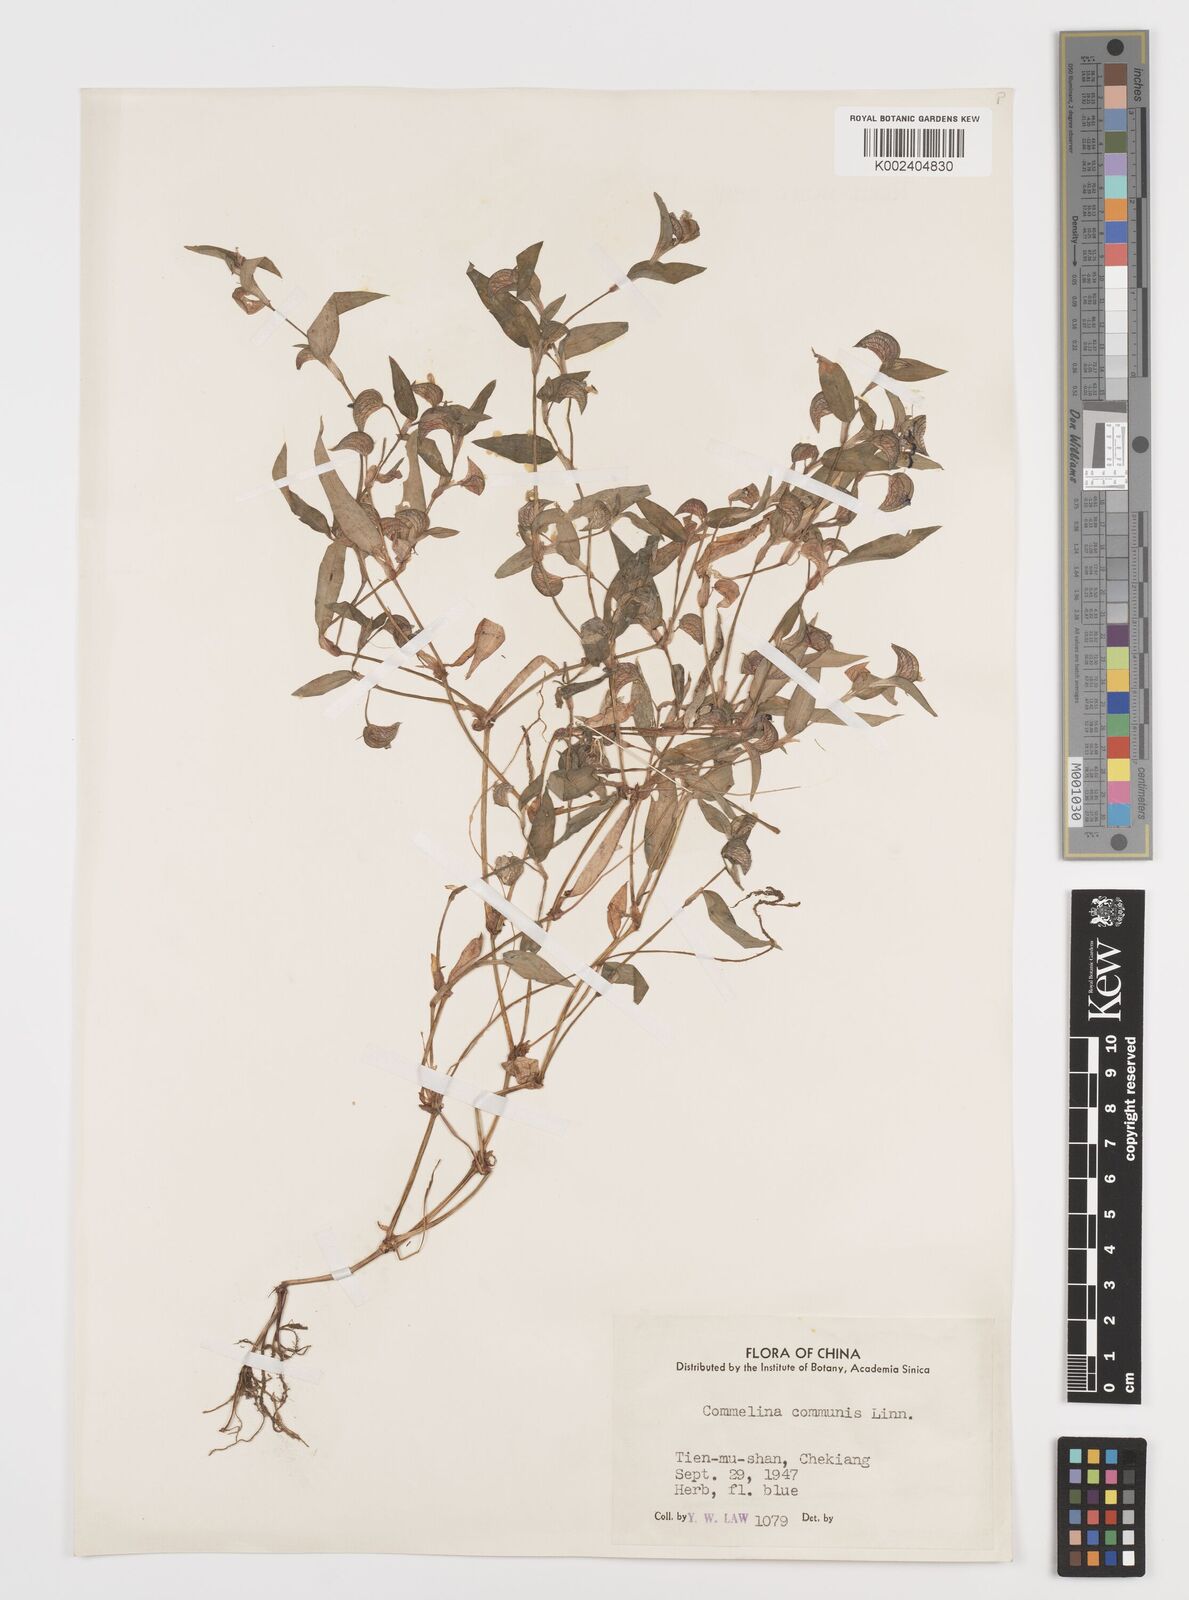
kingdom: Plantae
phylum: Tracheophyta
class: Liliopsida
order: Commelinales
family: Commelinaceae
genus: Commelina
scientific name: Commelina communis
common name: Asiatic dayflower
